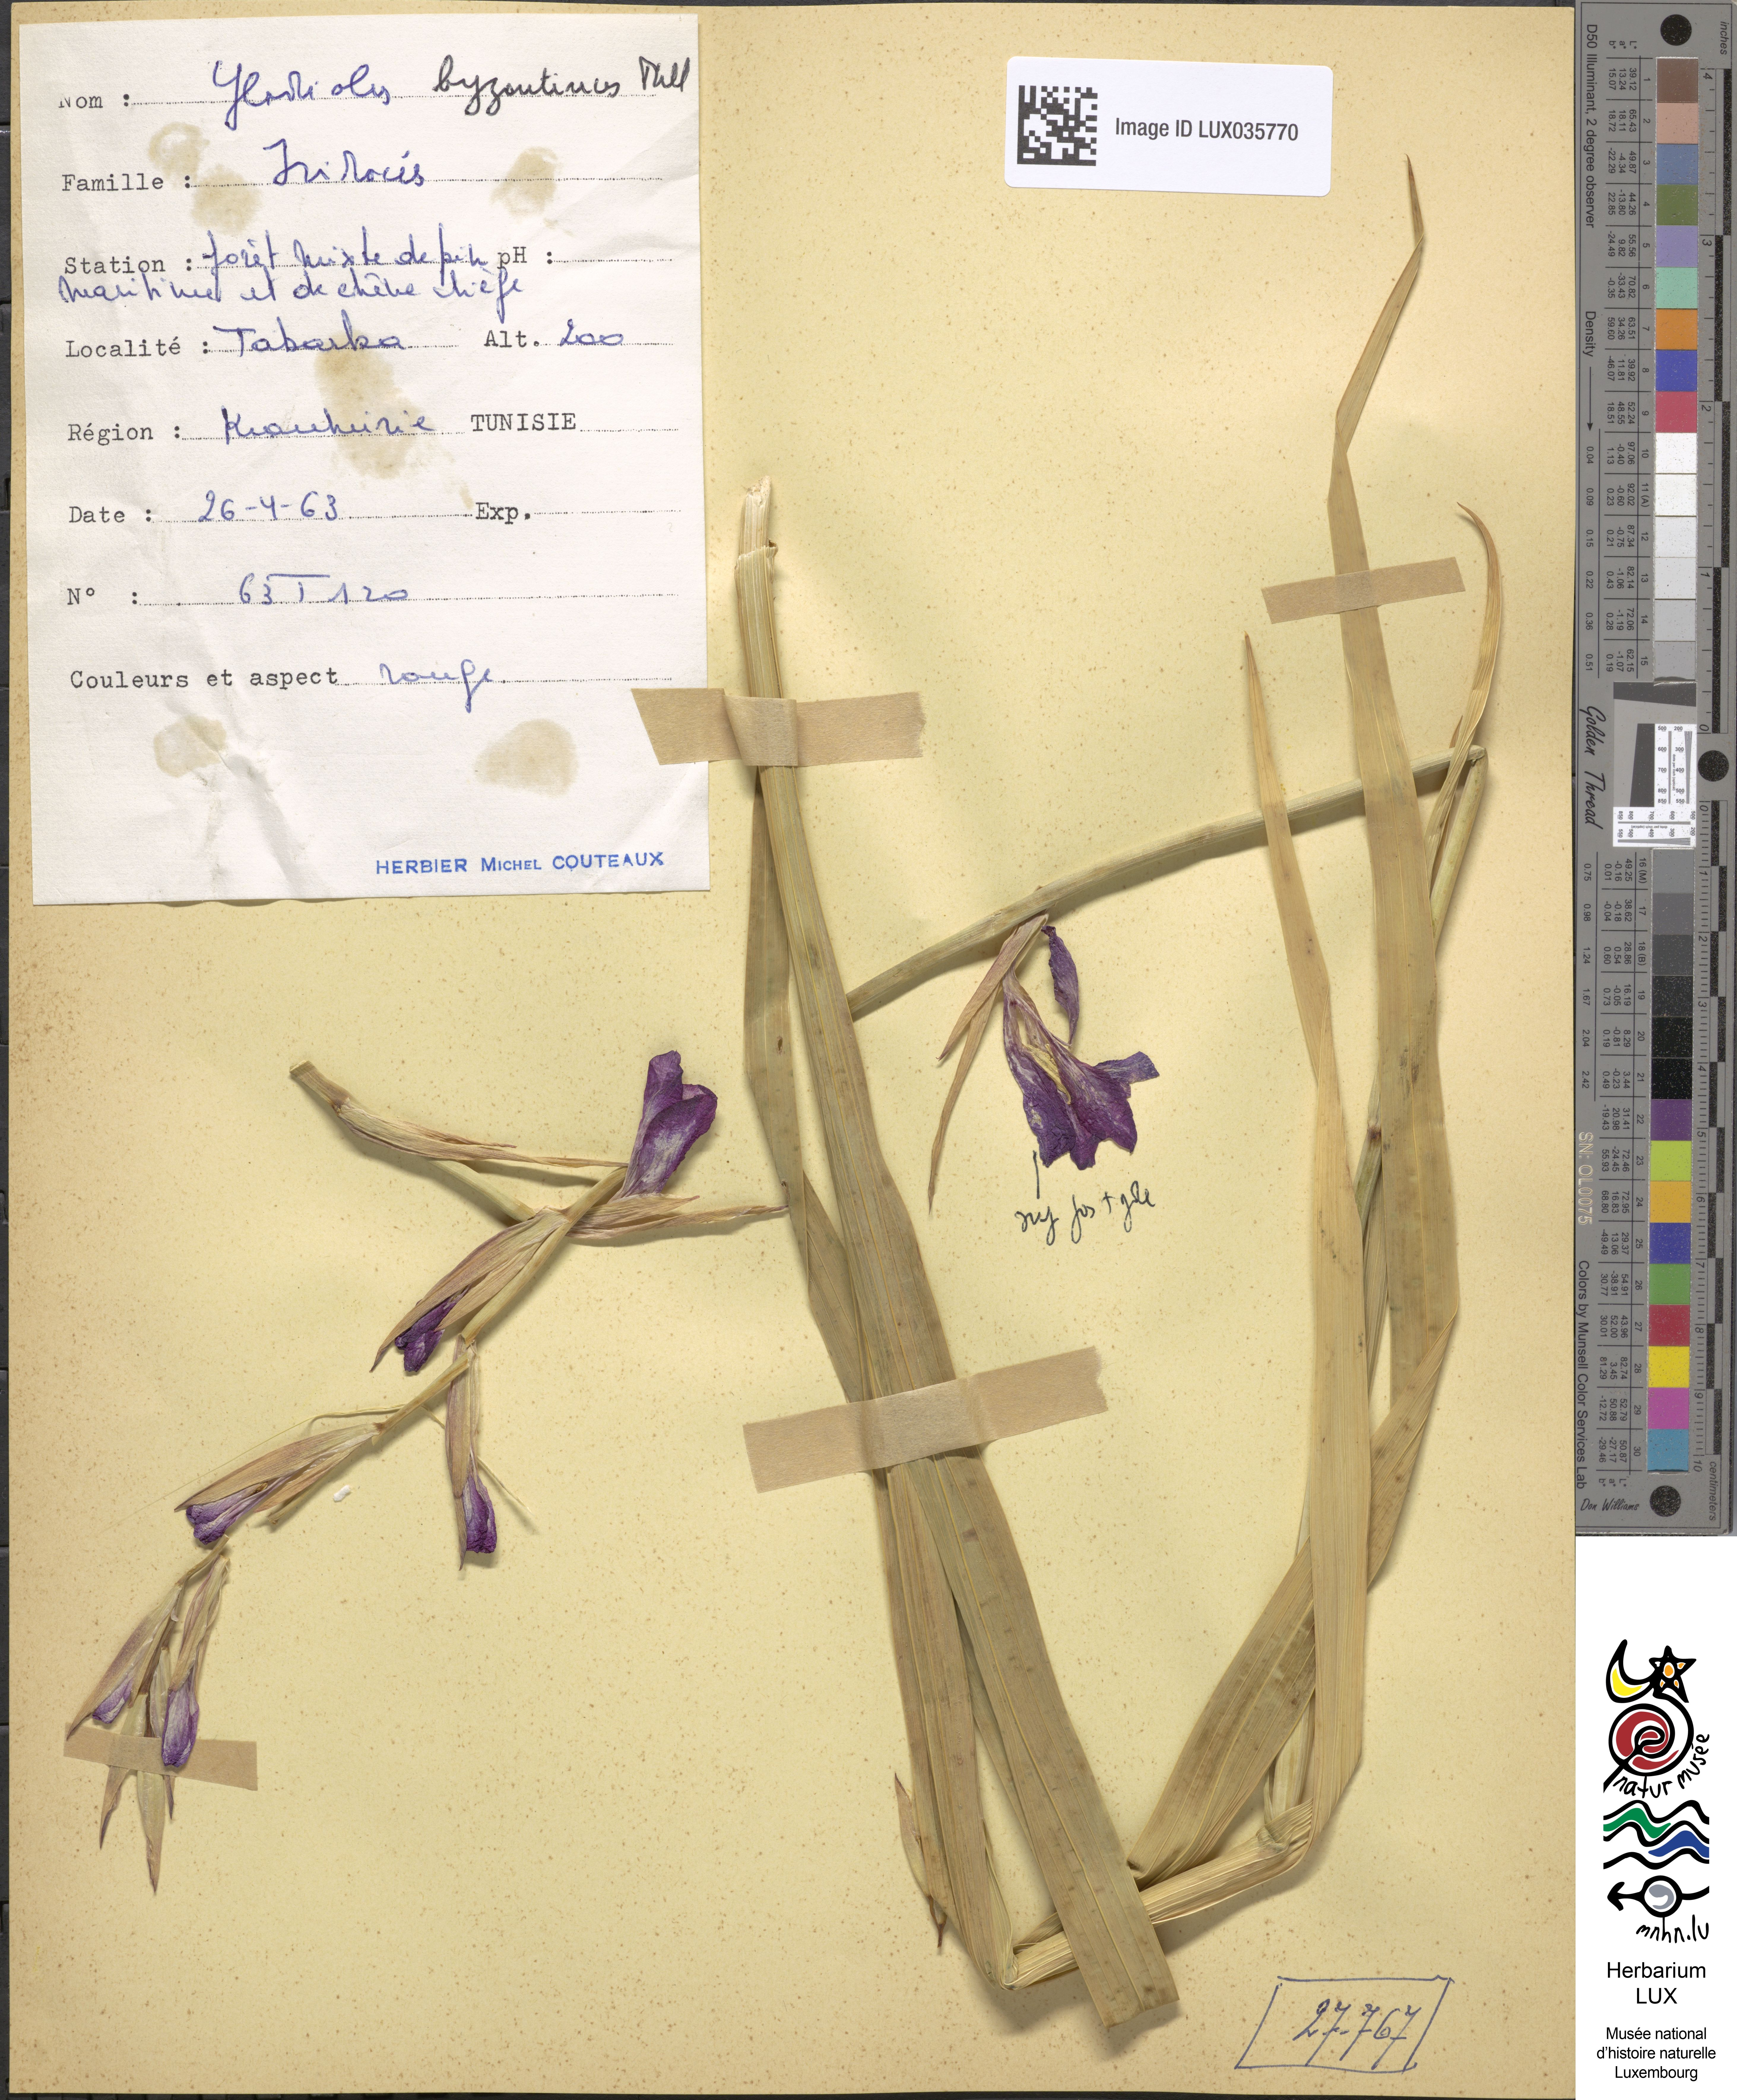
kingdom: Plantae
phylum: Tracheophyta
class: Liliopsida
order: Asparagales
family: Iridaceae
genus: Gladiolus
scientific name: Gladiolus byzantinus
